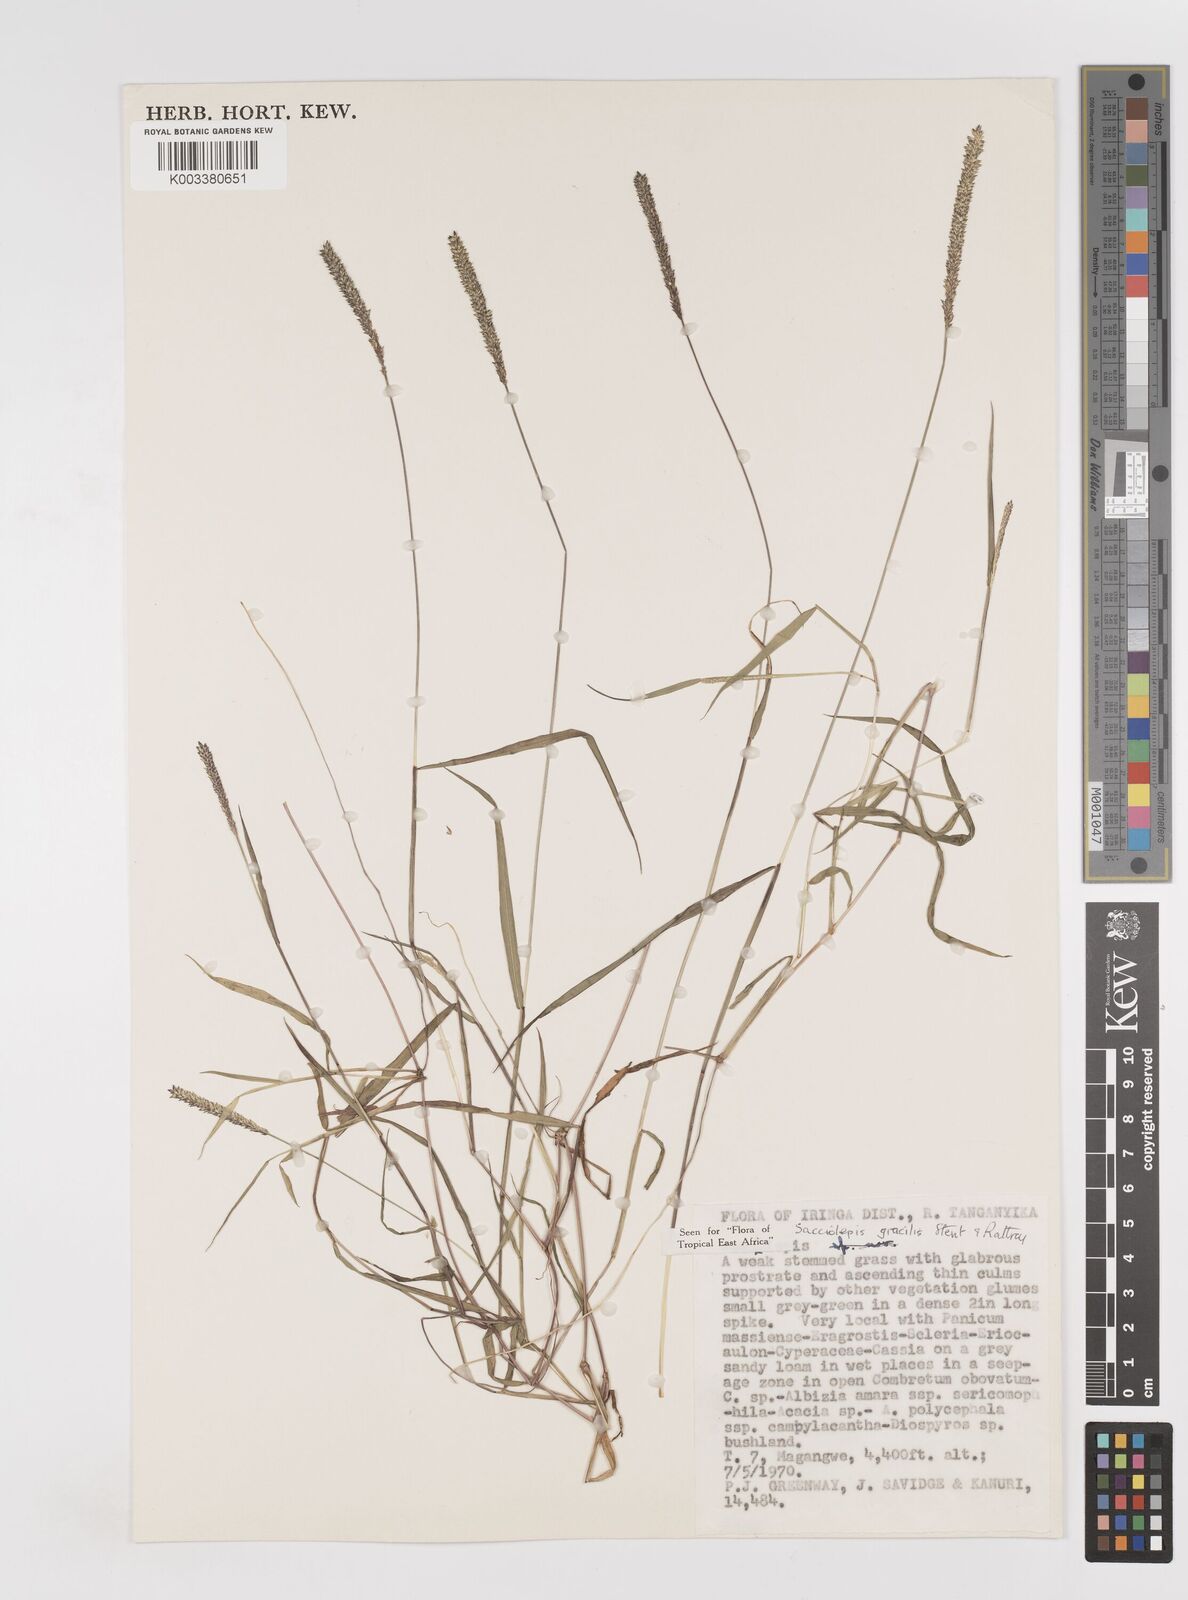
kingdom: Plantae
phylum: Tracheophyta
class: Liliopsida
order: Poales
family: Poaceae
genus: Sacciolepis
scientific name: Sacciolepis indica
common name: Glenwoodgrass
